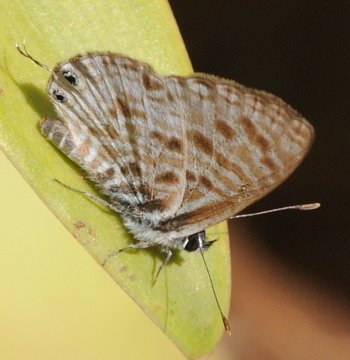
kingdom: Animalia
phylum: Arthropoda
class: Insecta
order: Lepidoptera
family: Lycaenidae
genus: Leptotes
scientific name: Leptotes pirithous
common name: Lang's Short-tailed Blue
